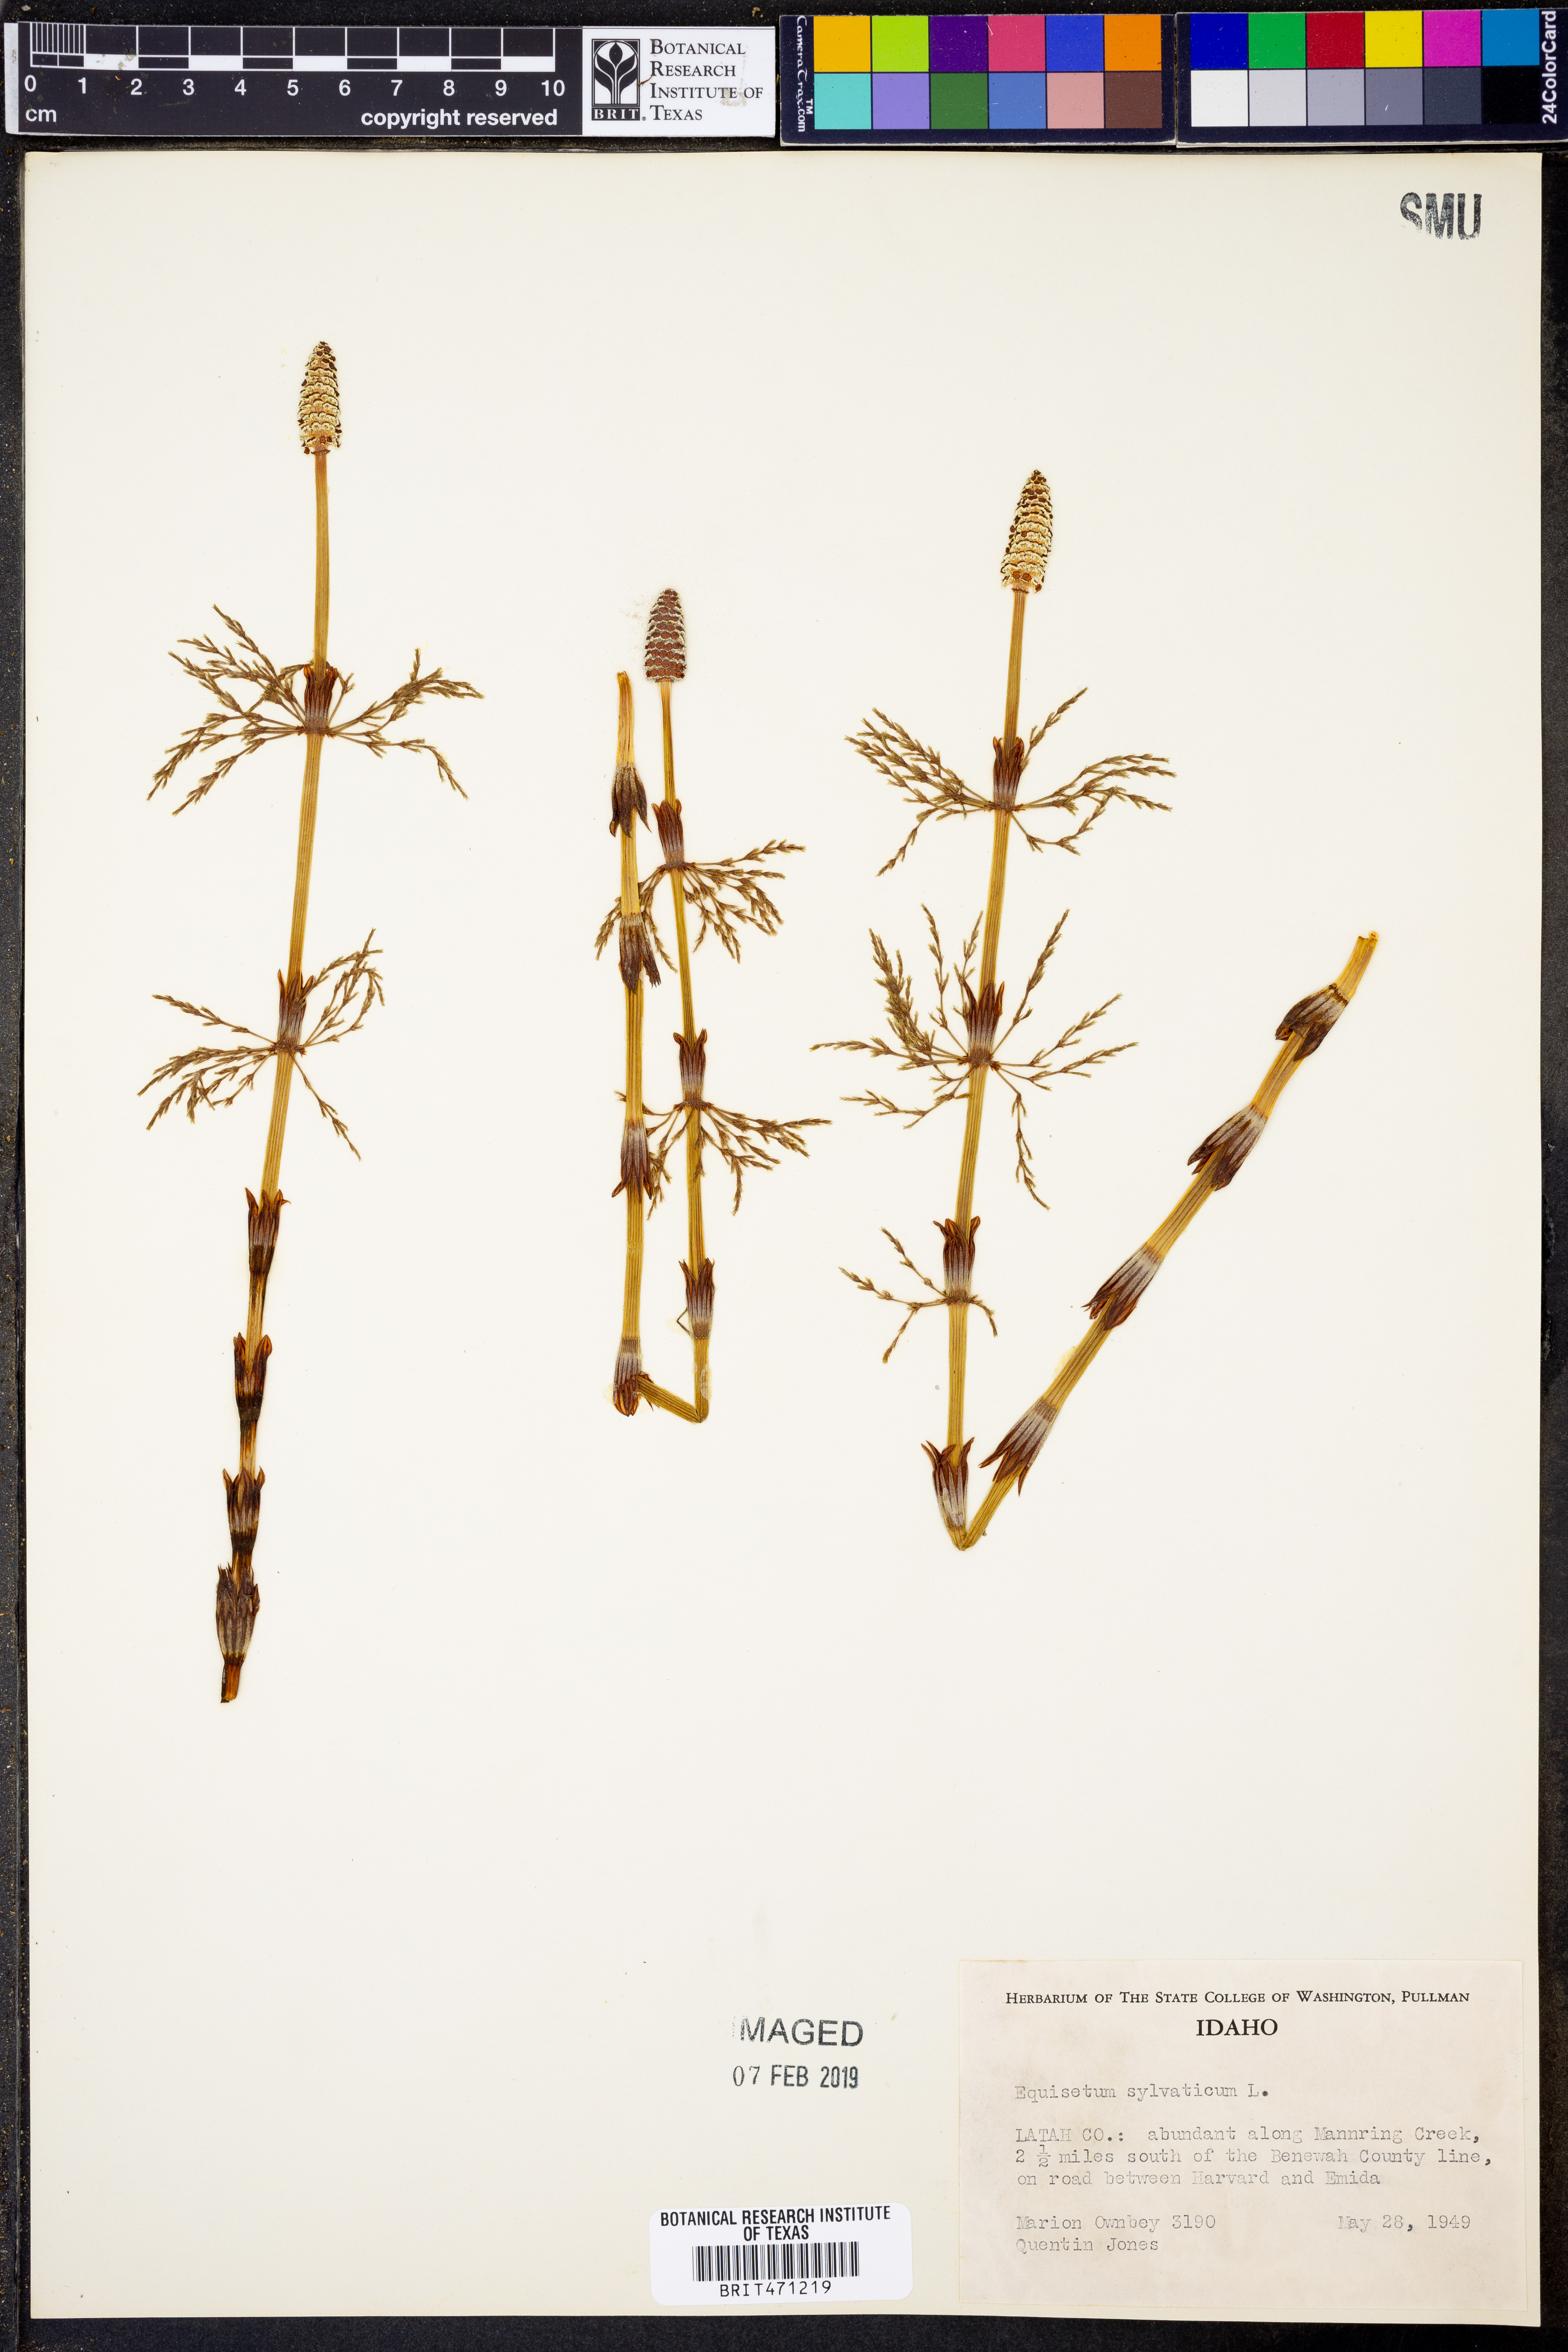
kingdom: Plantae
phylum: Tracheophyta
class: Polypodiopsida
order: Equisetales
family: Equisetaceae
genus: Equisetum
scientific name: Equisetum sylvaticum
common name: Wood horsetail
